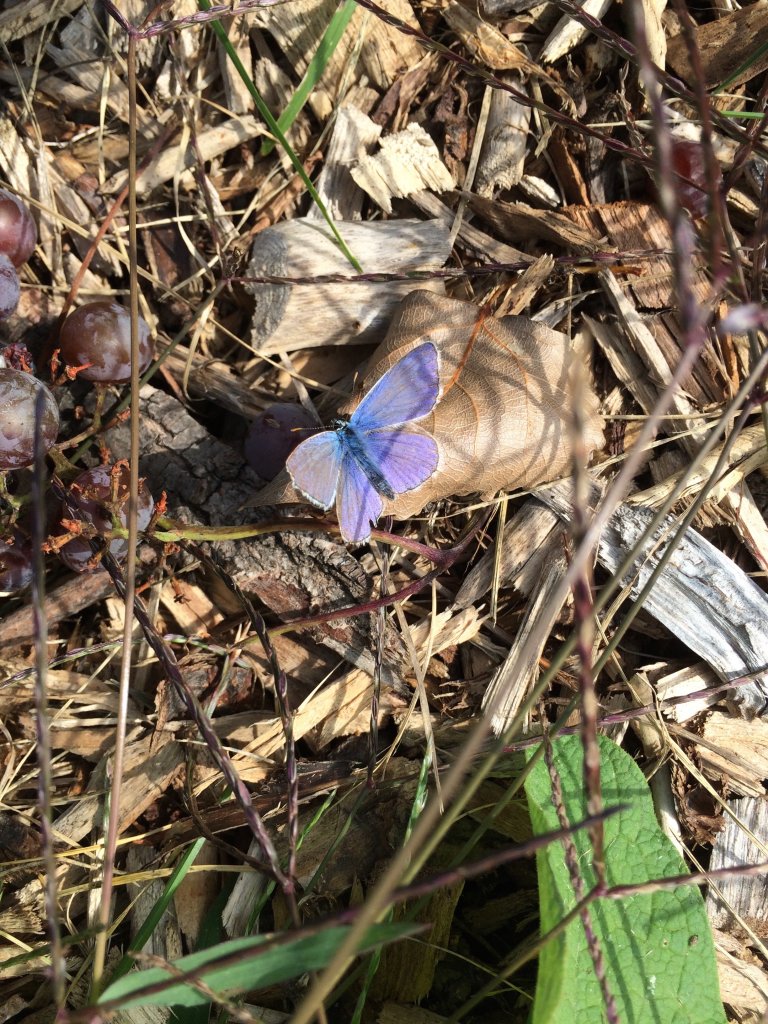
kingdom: Animalia
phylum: Arthropoda
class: Insecta
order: Lepidoptera
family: Lycaenidae
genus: Polyommatus
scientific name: Polyommatus icarus
